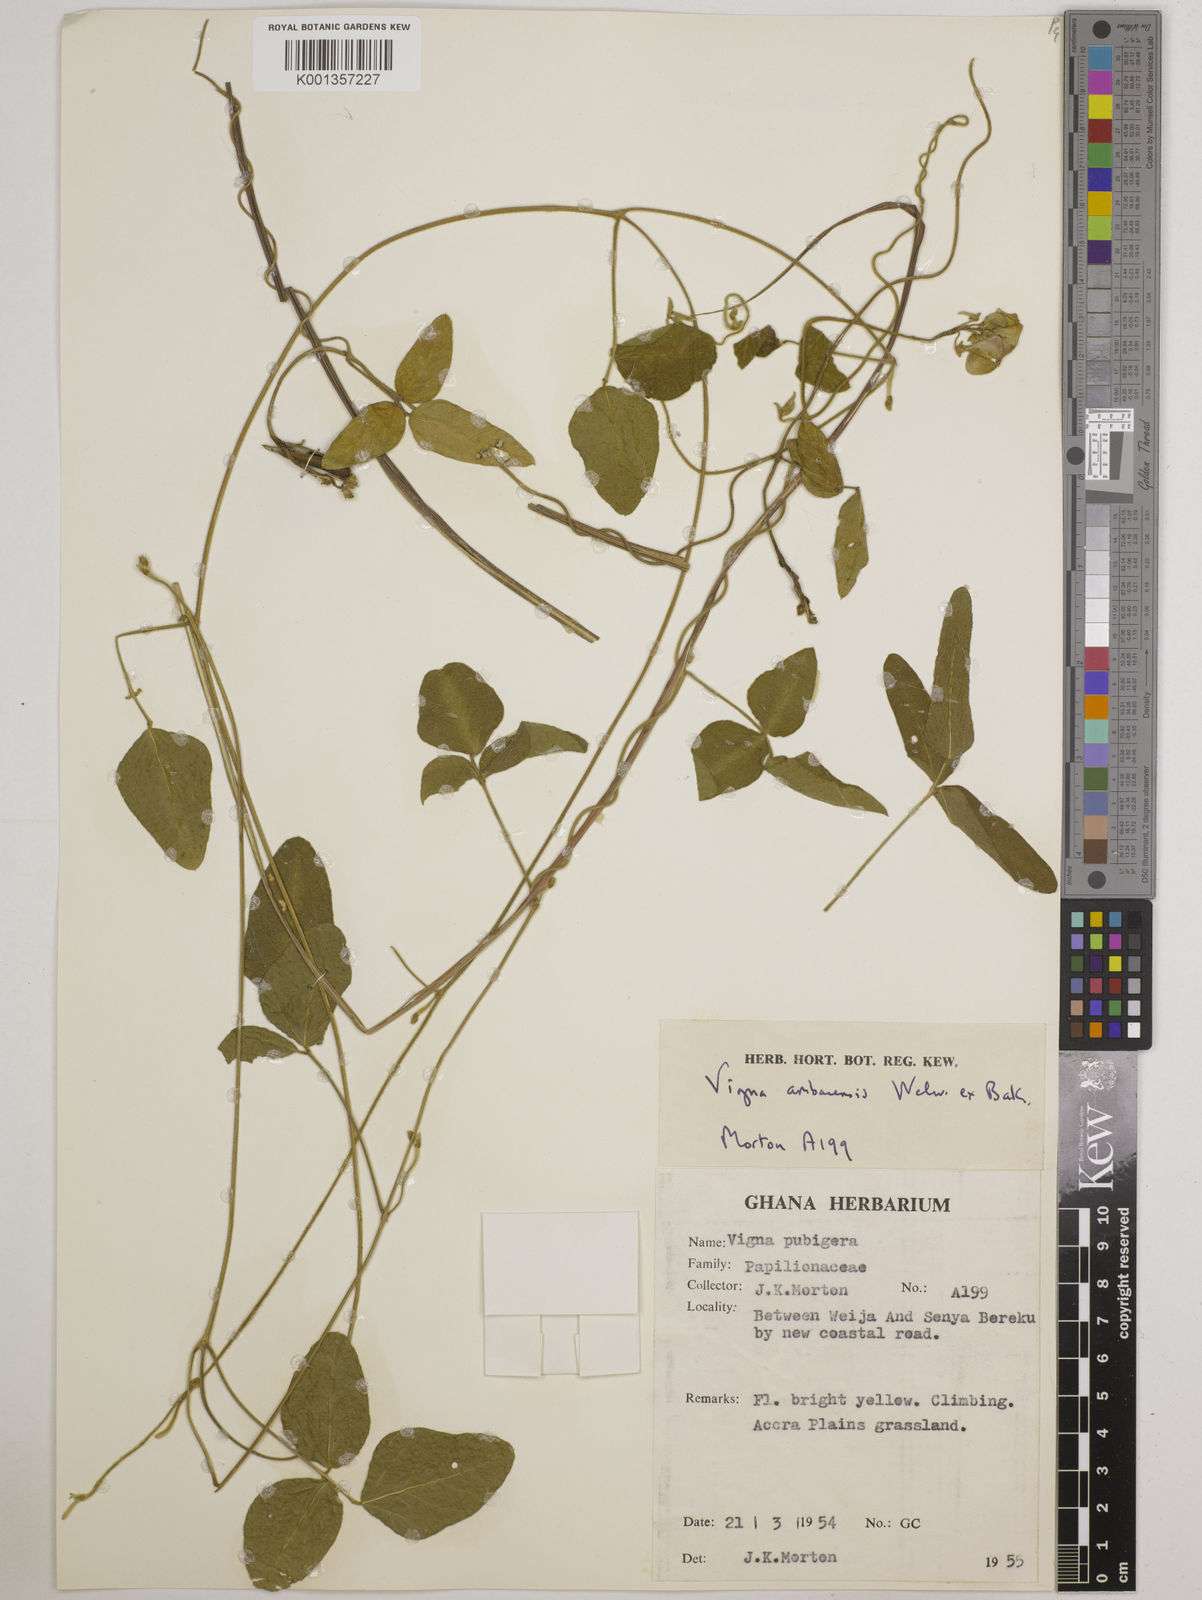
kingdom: Plantae
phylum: Tracheophyta
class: Magnoliopsida
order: Fabales
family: Fabaceae
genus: Vigna
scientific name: Vigna ambacensis
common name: Tsarkiyan zomo
